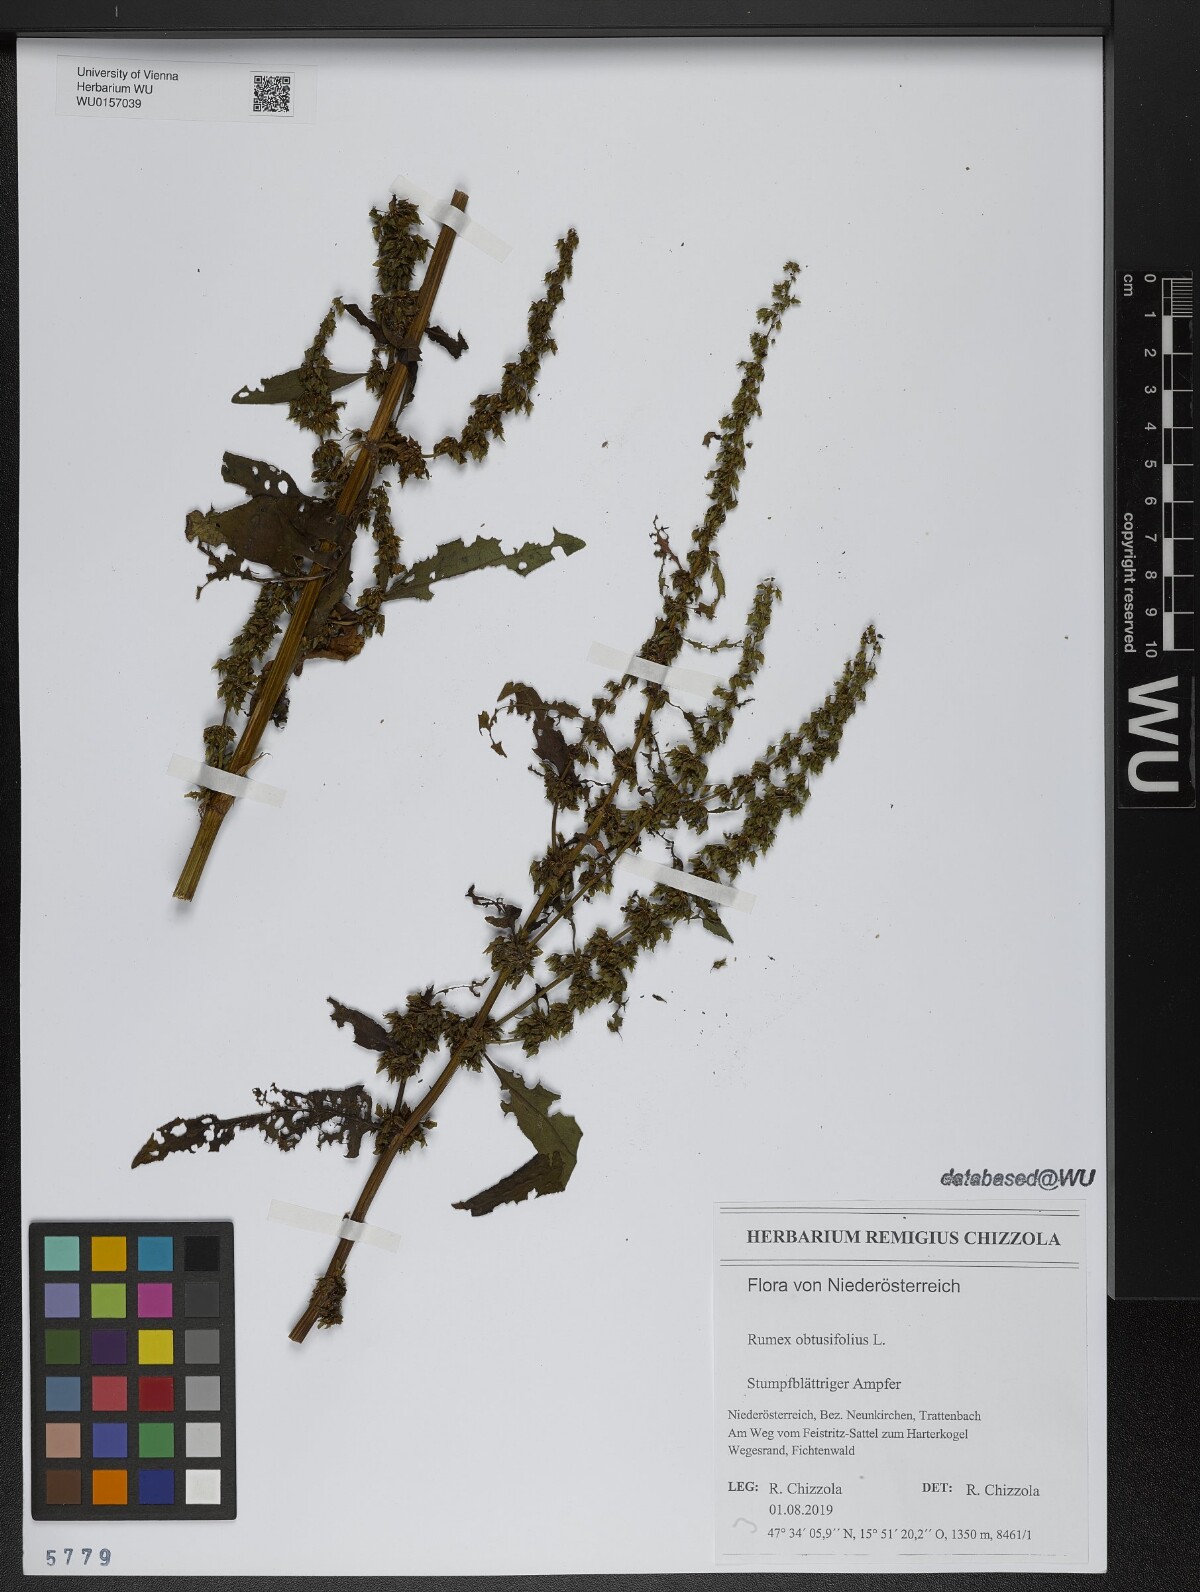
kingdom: Plantae
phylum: Tracheophyta
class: Magnoliopsida
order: Caryophyllales
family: Polygonaceae
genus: Rumex
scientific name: Rumex obtusifolius
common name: Bitter dock
